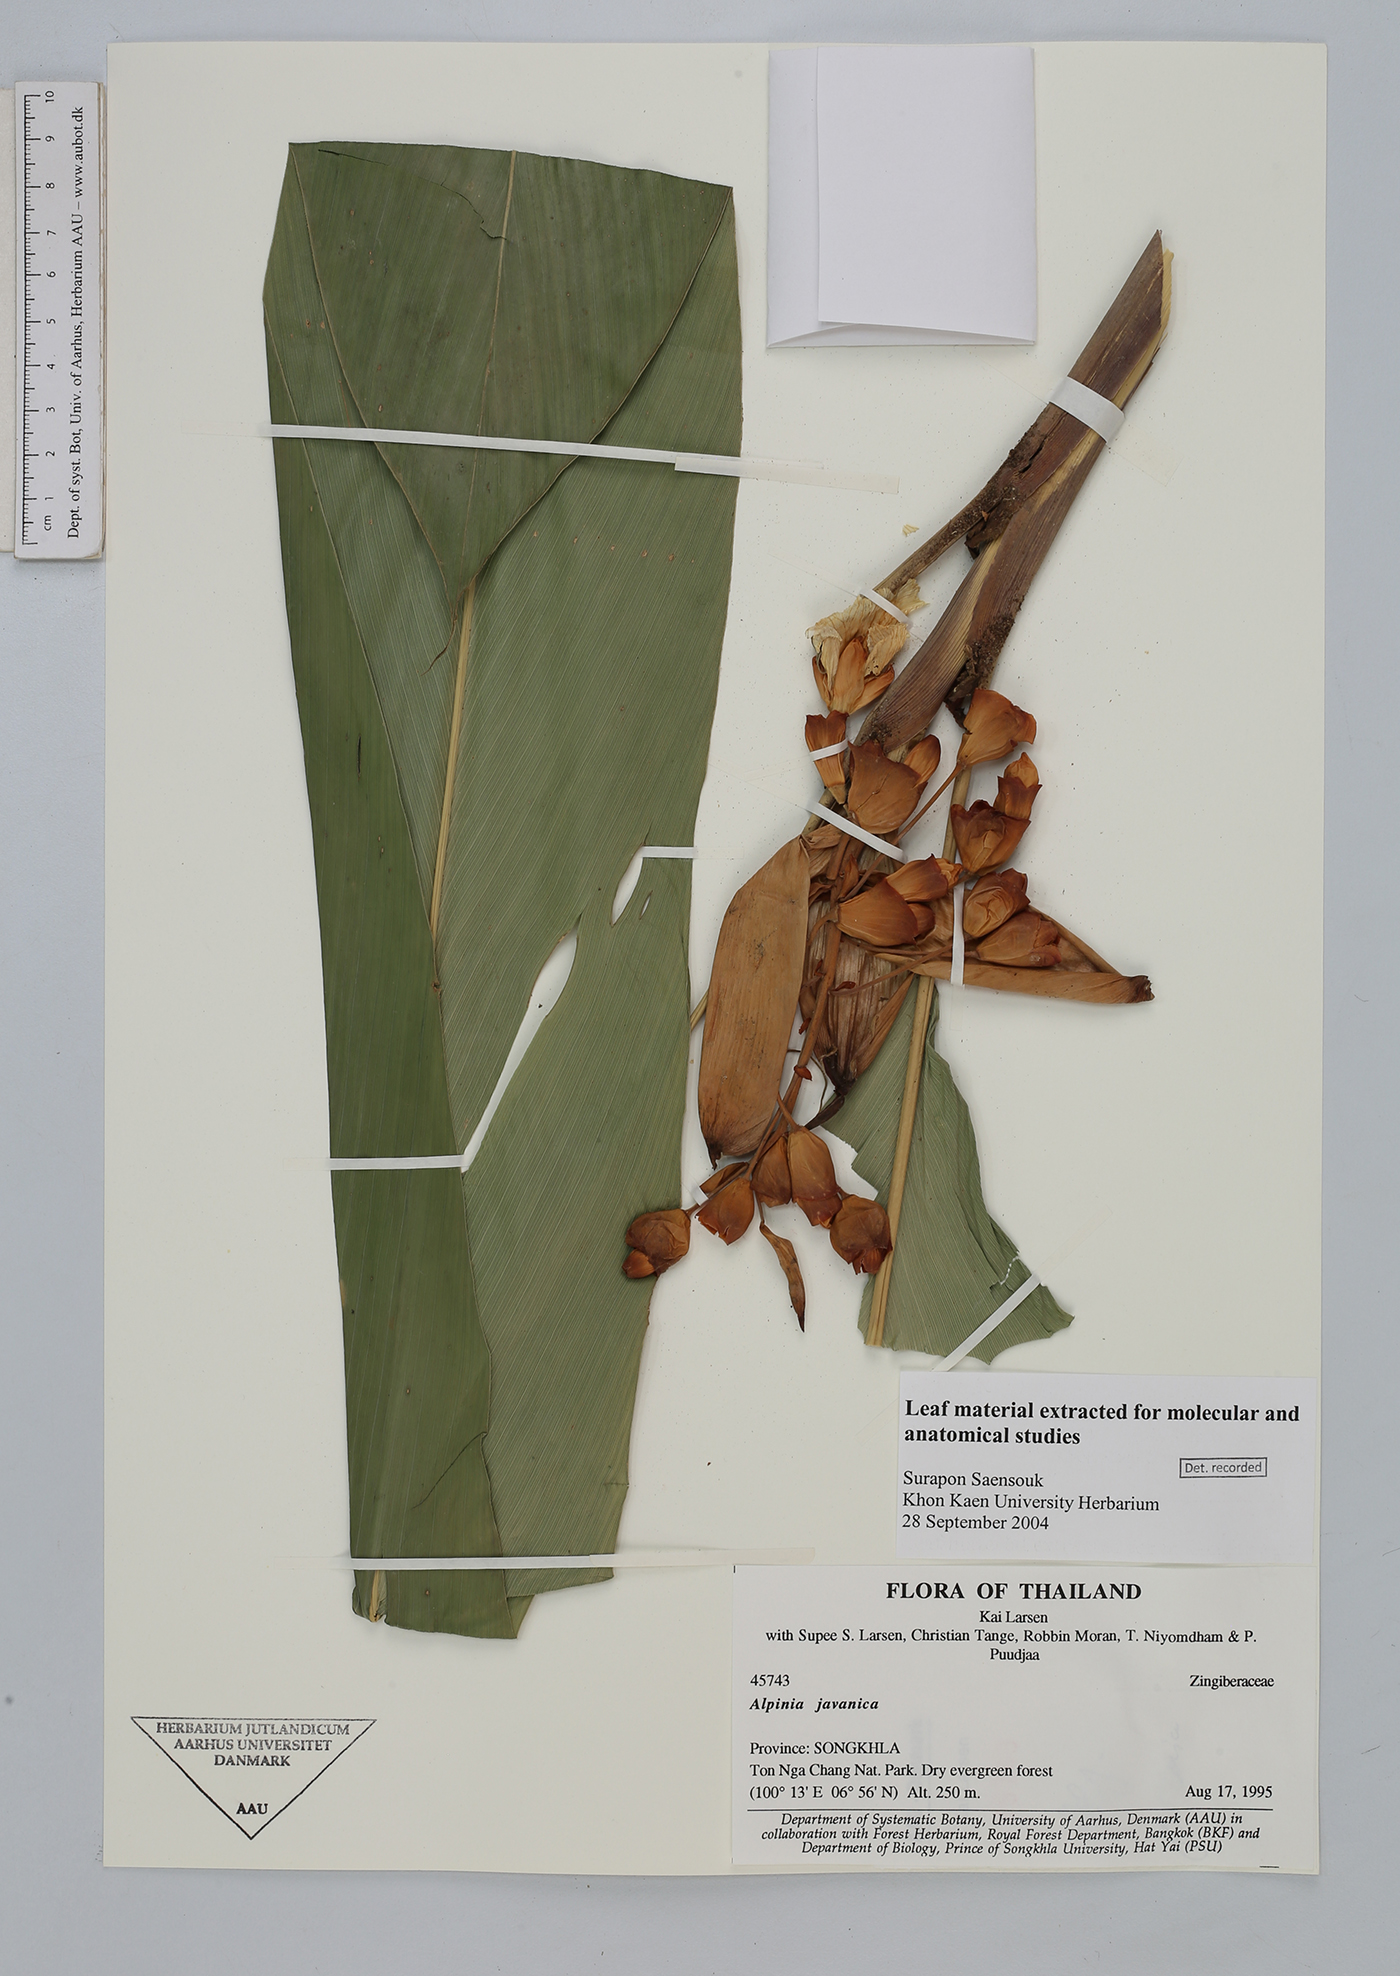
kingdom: Plantae
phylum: Tracheophyta
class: Liliopsida
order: Zingiberales
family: Zingiberaceae
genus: Alpinia
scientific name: Alpinia
